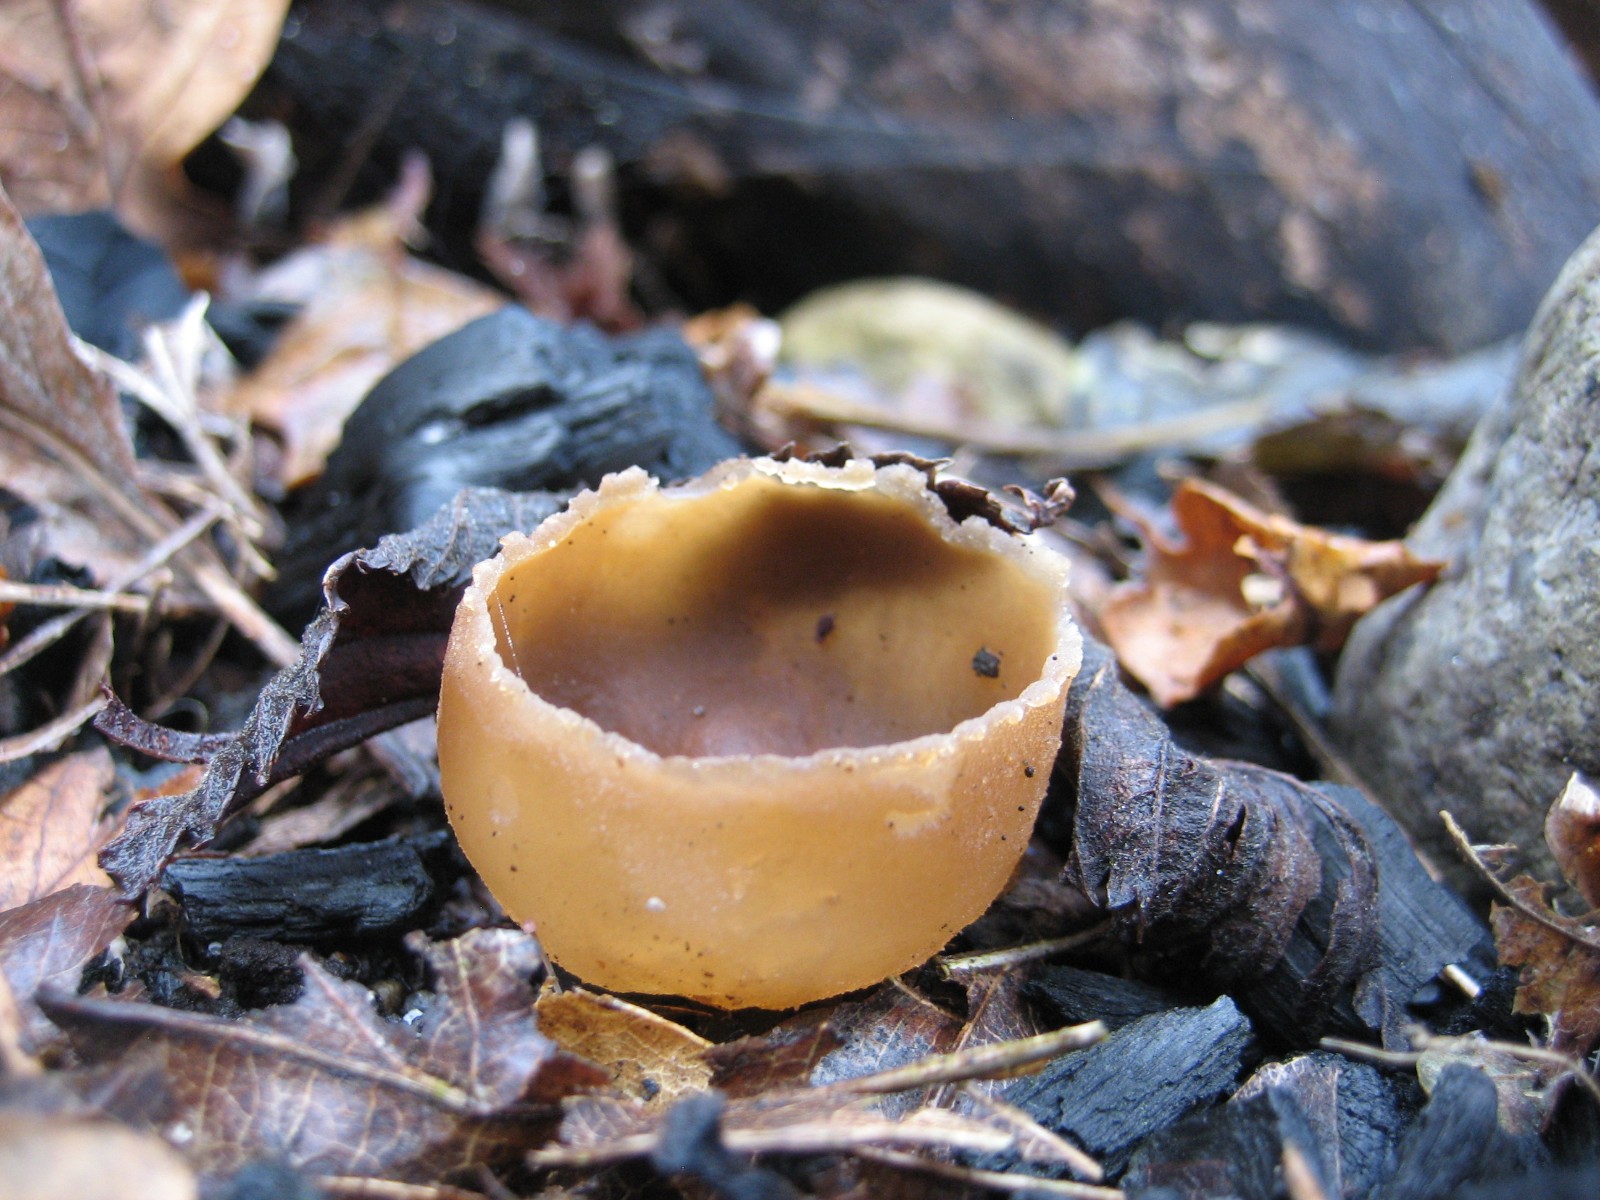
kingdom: Fungi
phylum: Ascomycota
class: Pezizomycetes
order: Pezizales
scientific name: Pezizales
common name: bægersvampordenen
